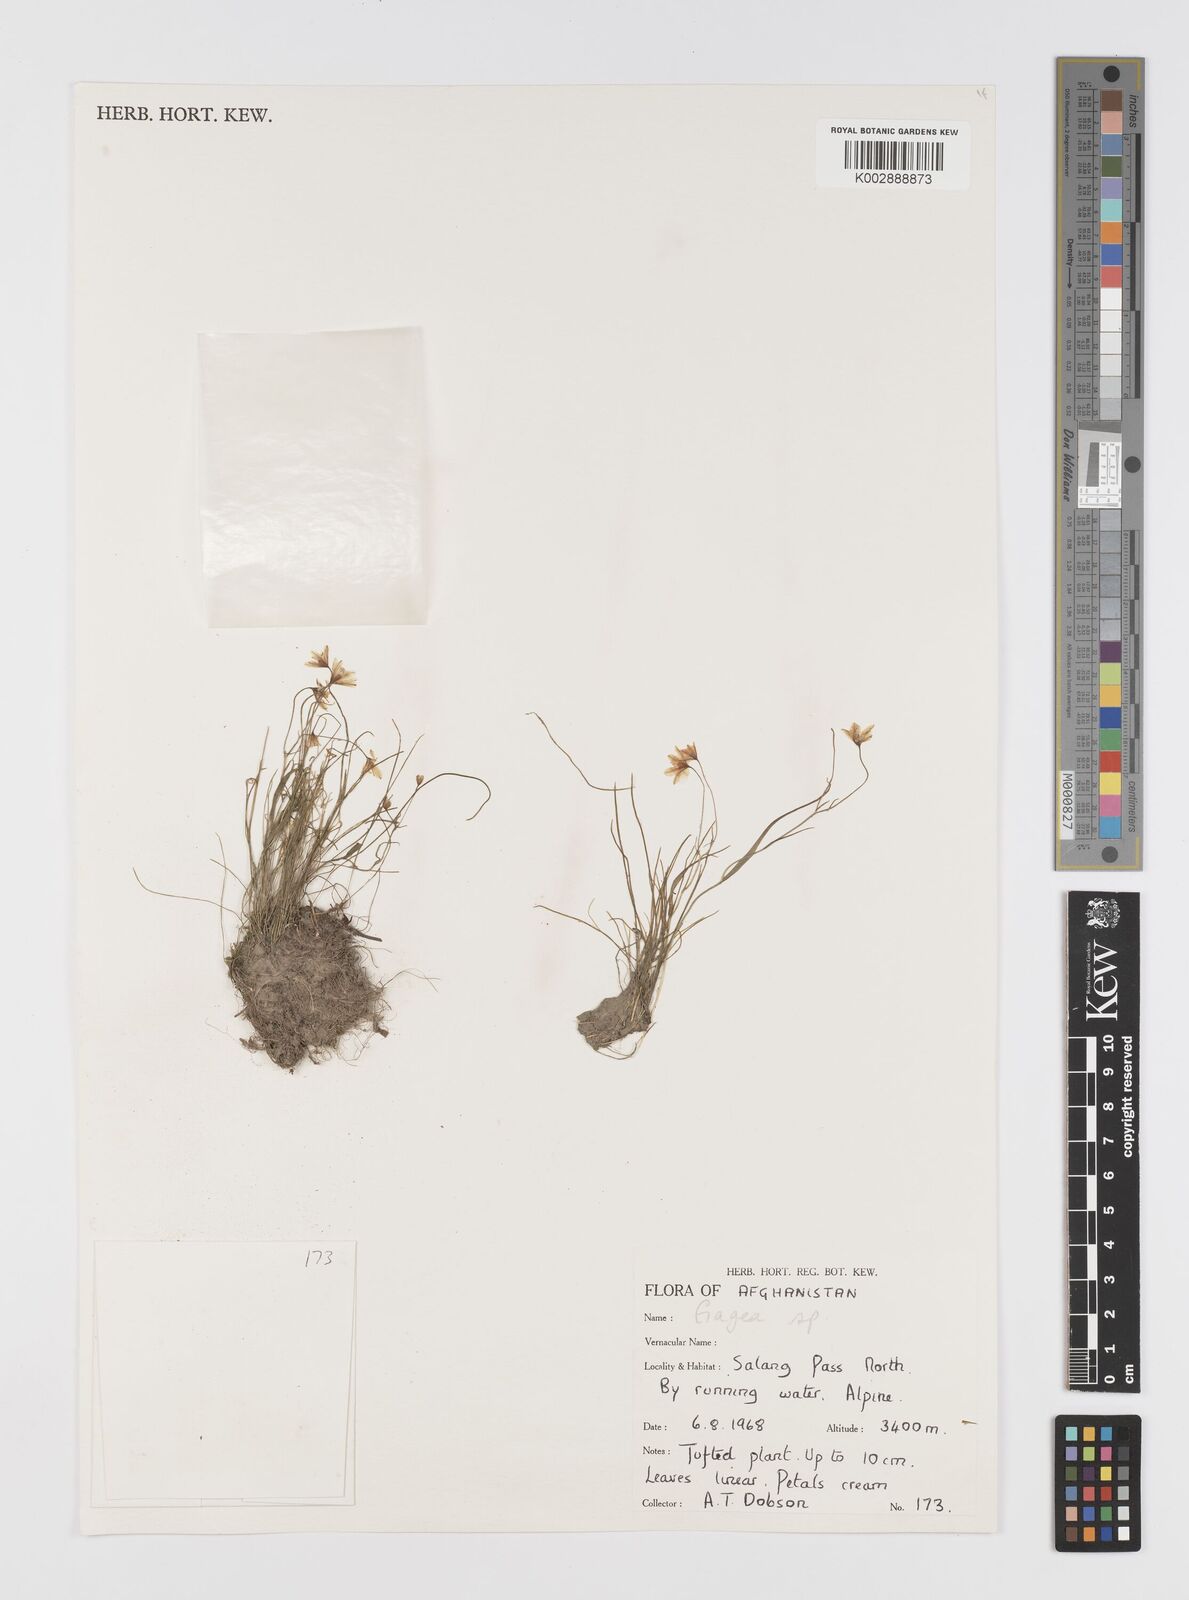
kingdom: Plantae
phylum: Tracheophyta
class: Liliopsida
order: Liliales
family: Liliaceae
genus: Gagea
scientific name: Gagea
